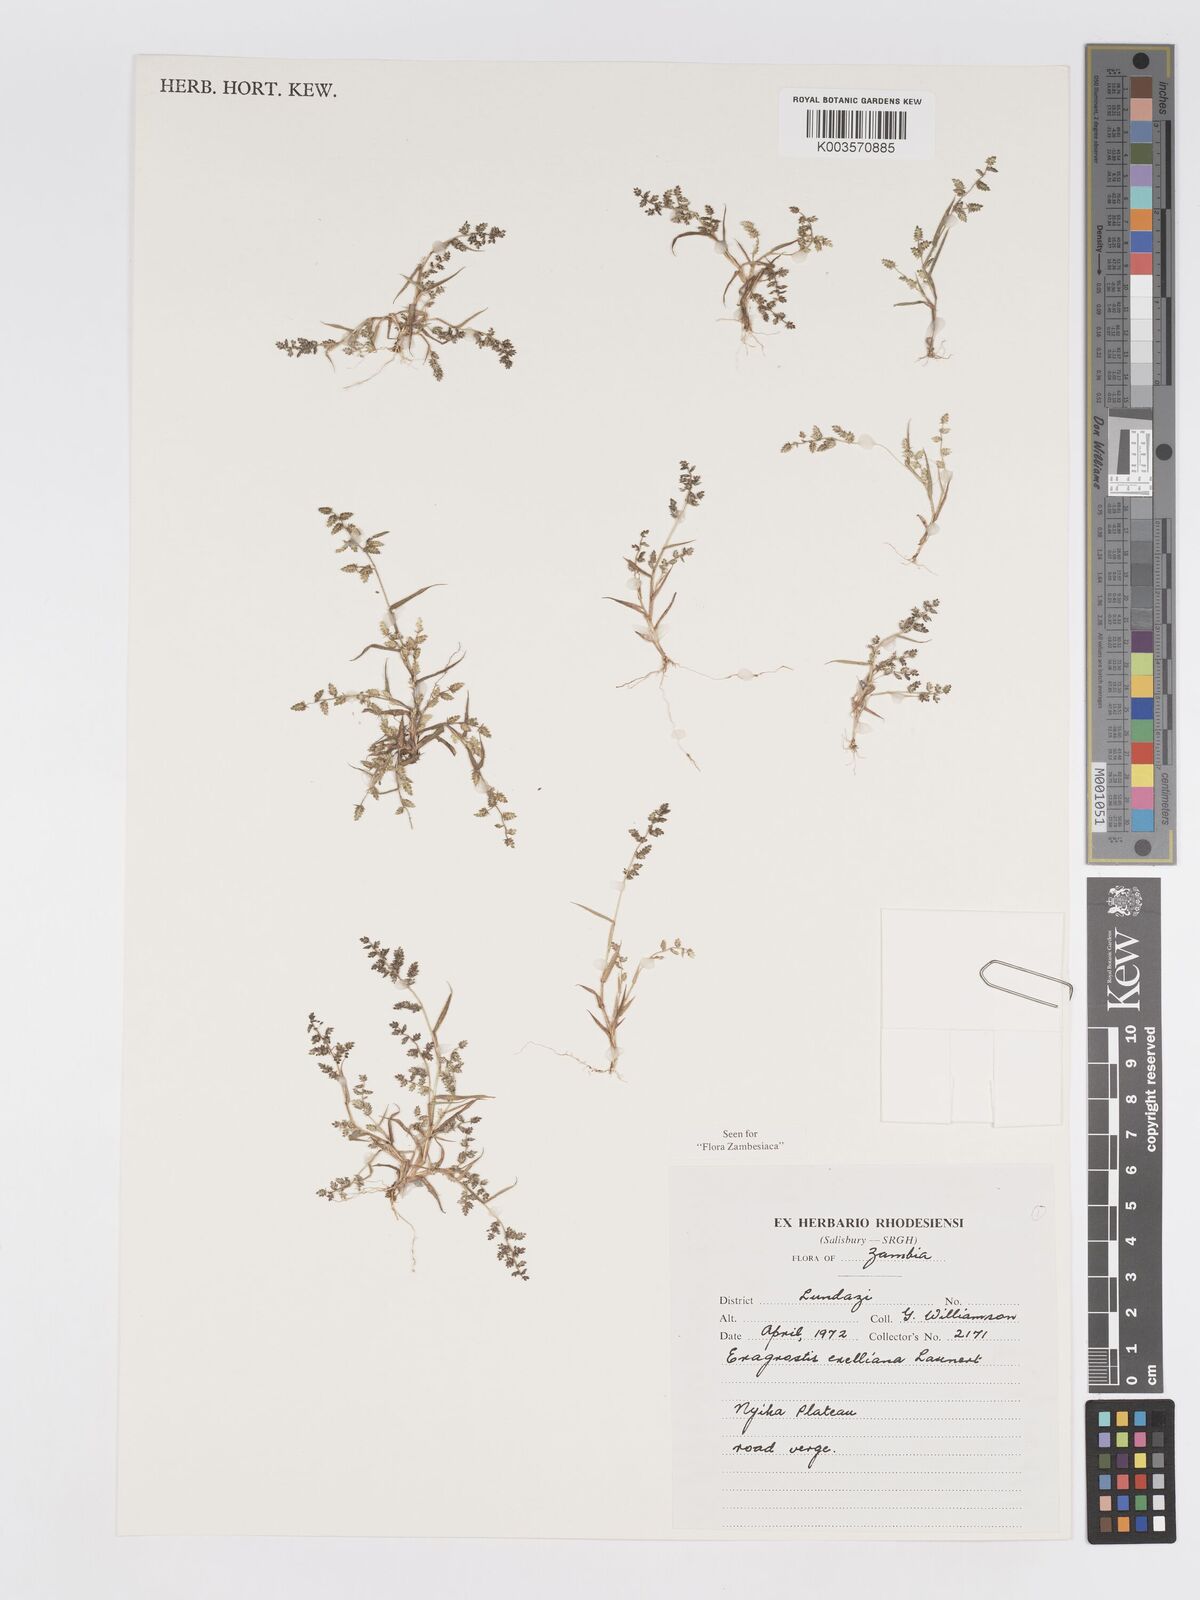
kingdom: Plantae
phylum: Tracheophyta
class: Liliopsida
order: Poales
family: Poaceae
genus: Eragrostis
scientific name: Eragrostis exelliana
